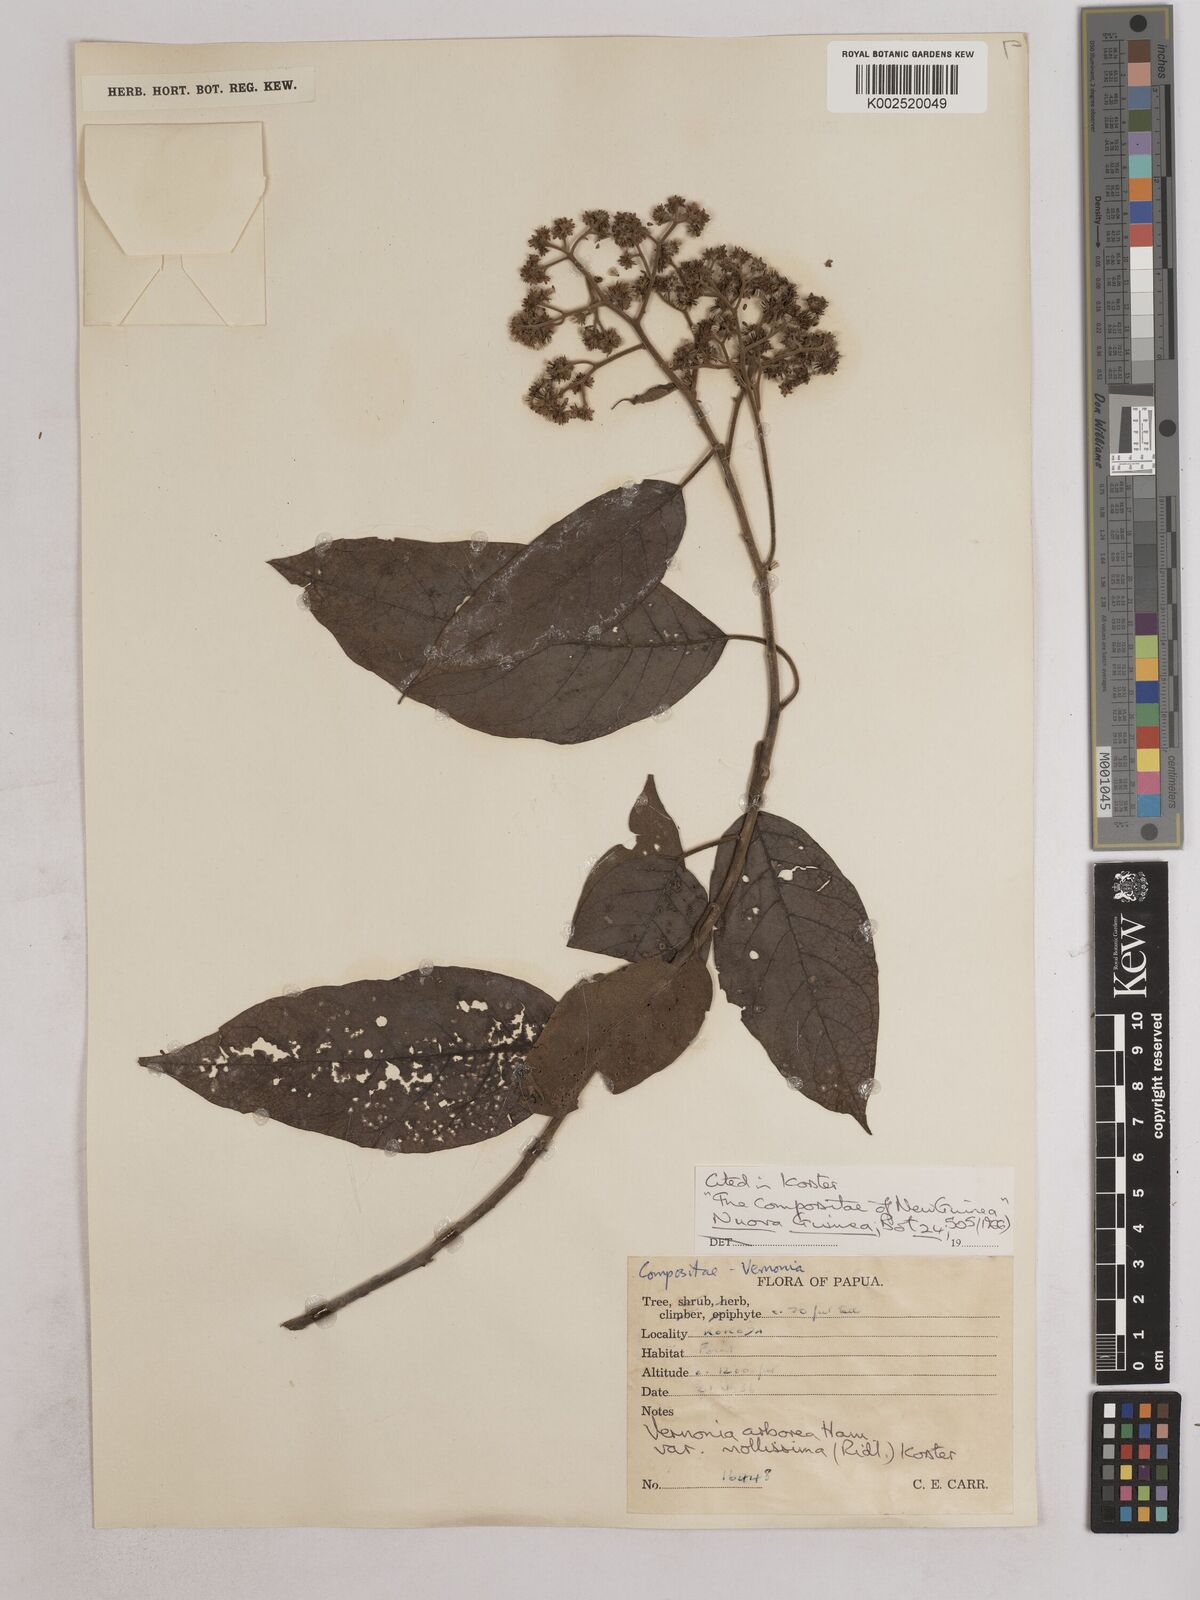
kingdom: Plantae
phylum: Tracheophyta
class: Magnoliopsida
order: Asterales
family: Asteraceae
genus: Strobocalyx
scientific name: Strobocalyx arborea
